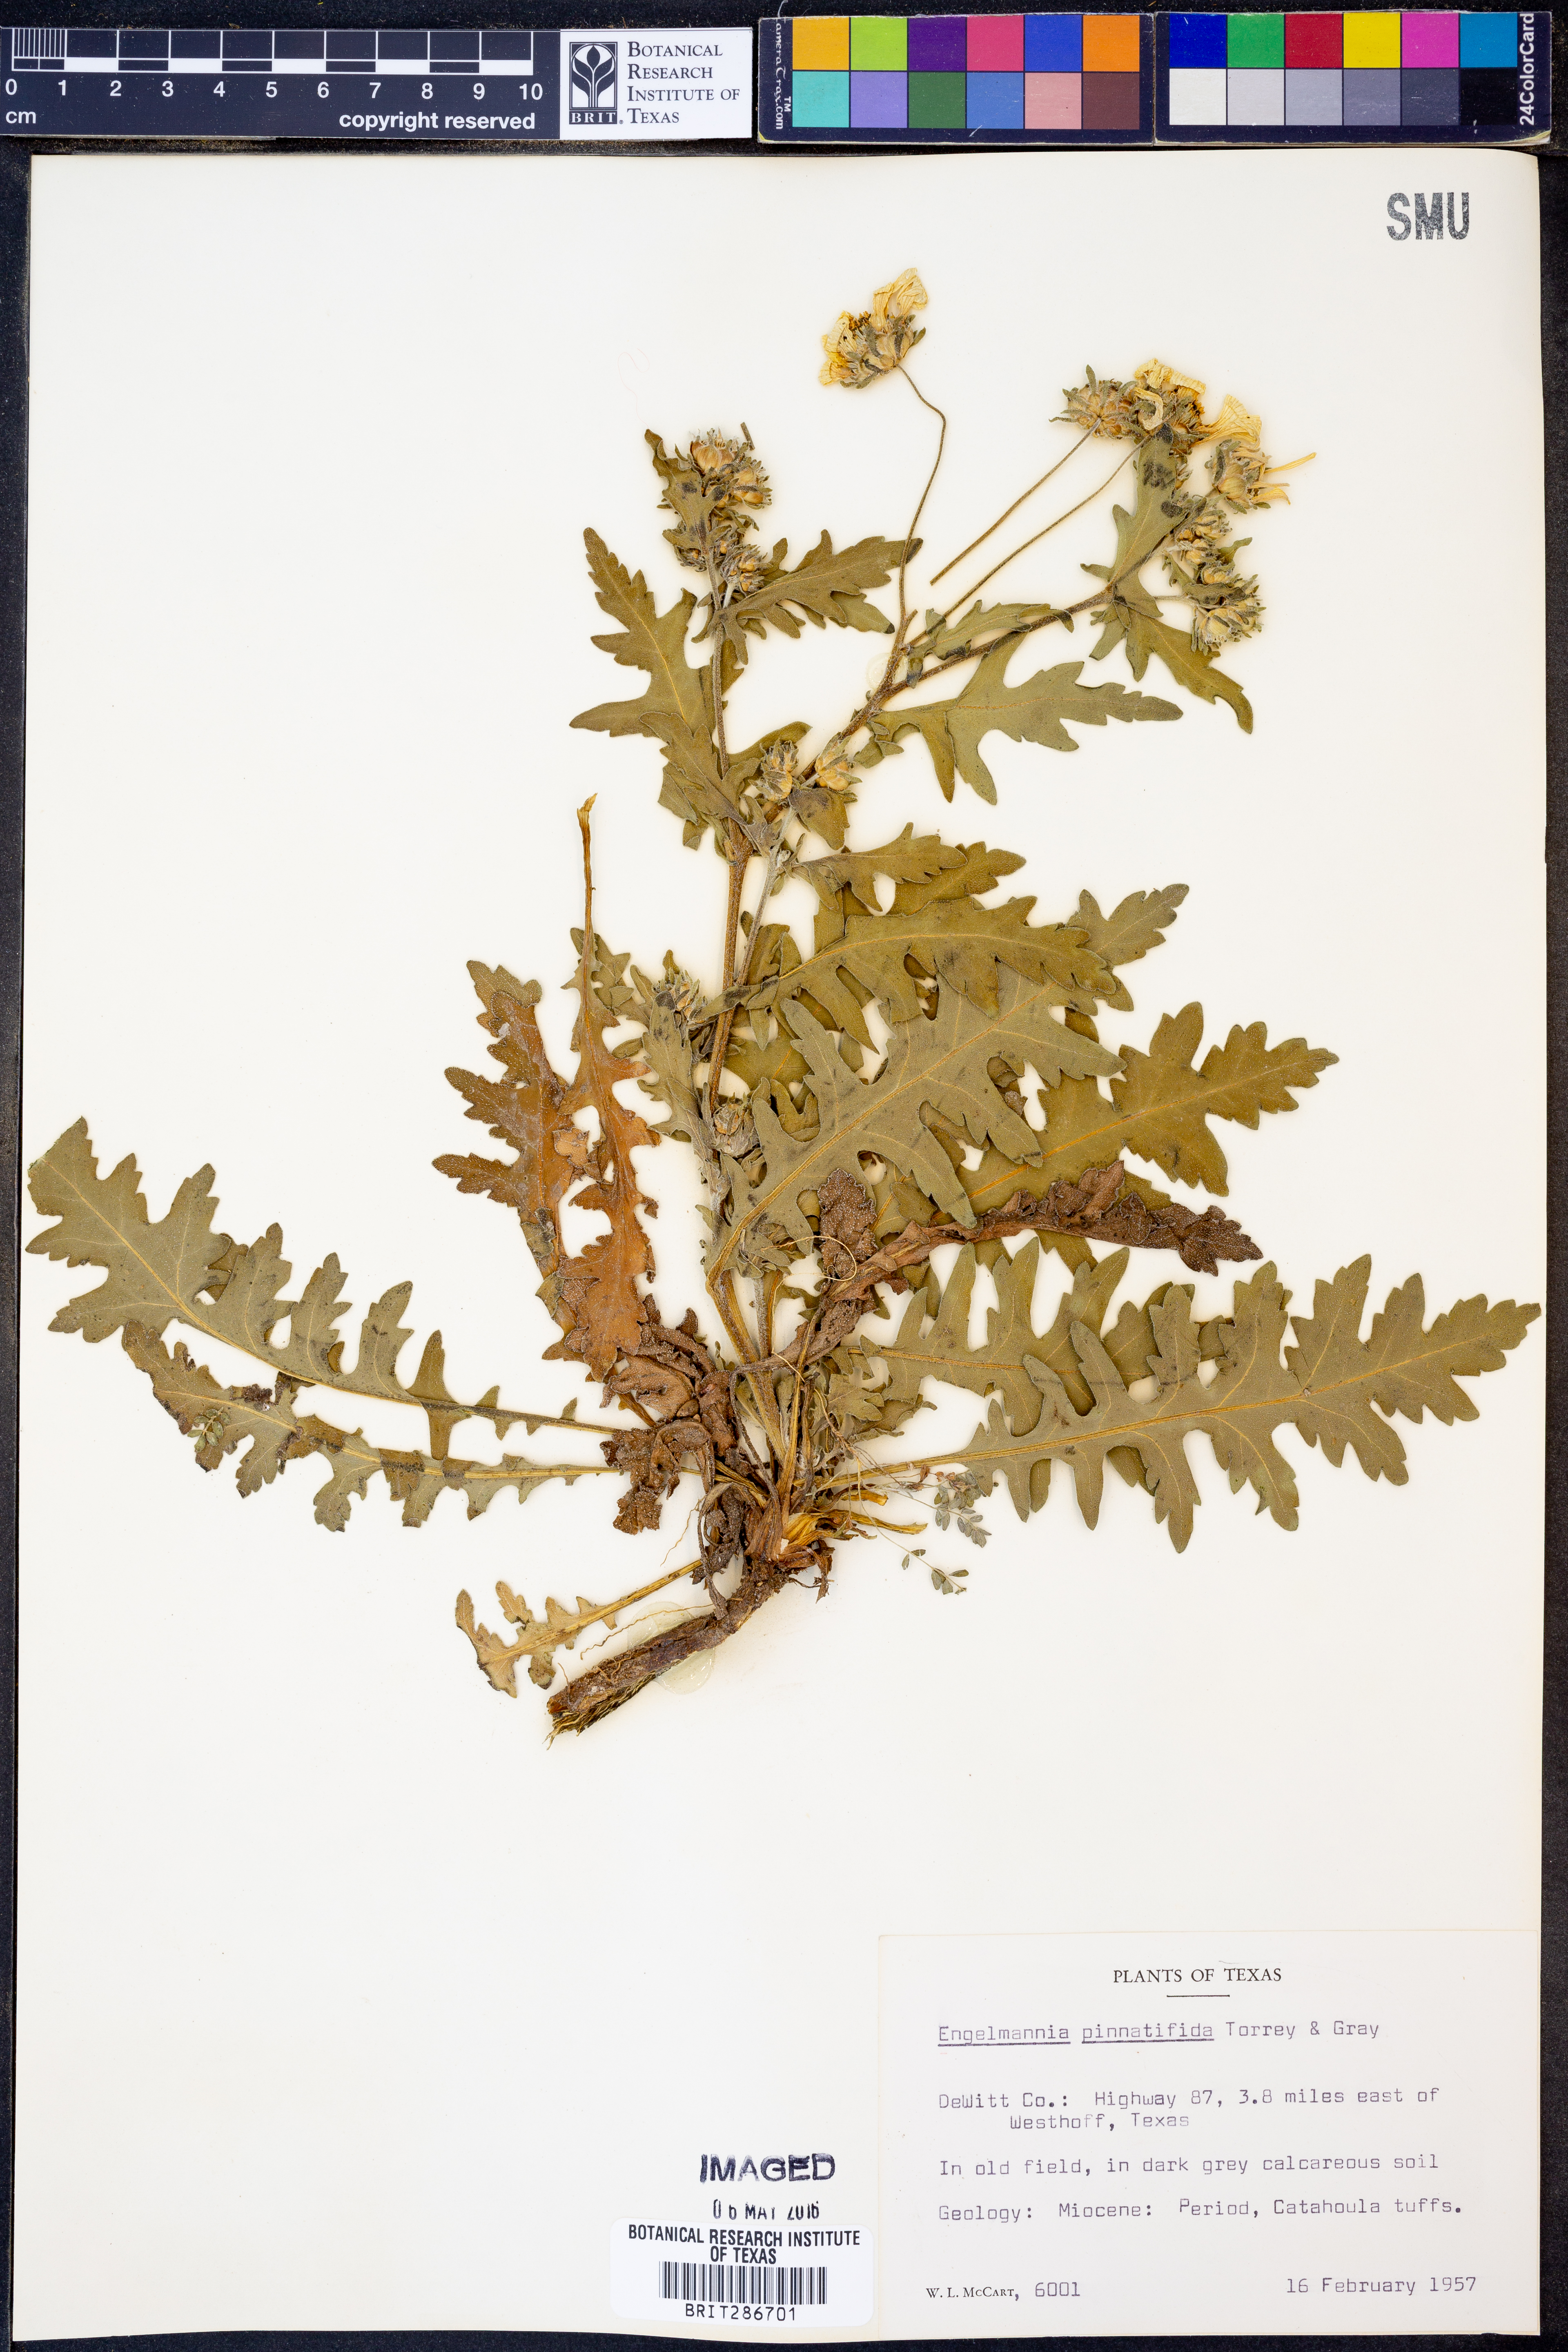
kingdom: Plantae
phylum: Tracheophyta
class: Magnoliopsida
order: Asterales
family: Asteraceae
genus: Engelmannia
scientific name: Engelmannia peristenia
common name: Engelmann's daisy
